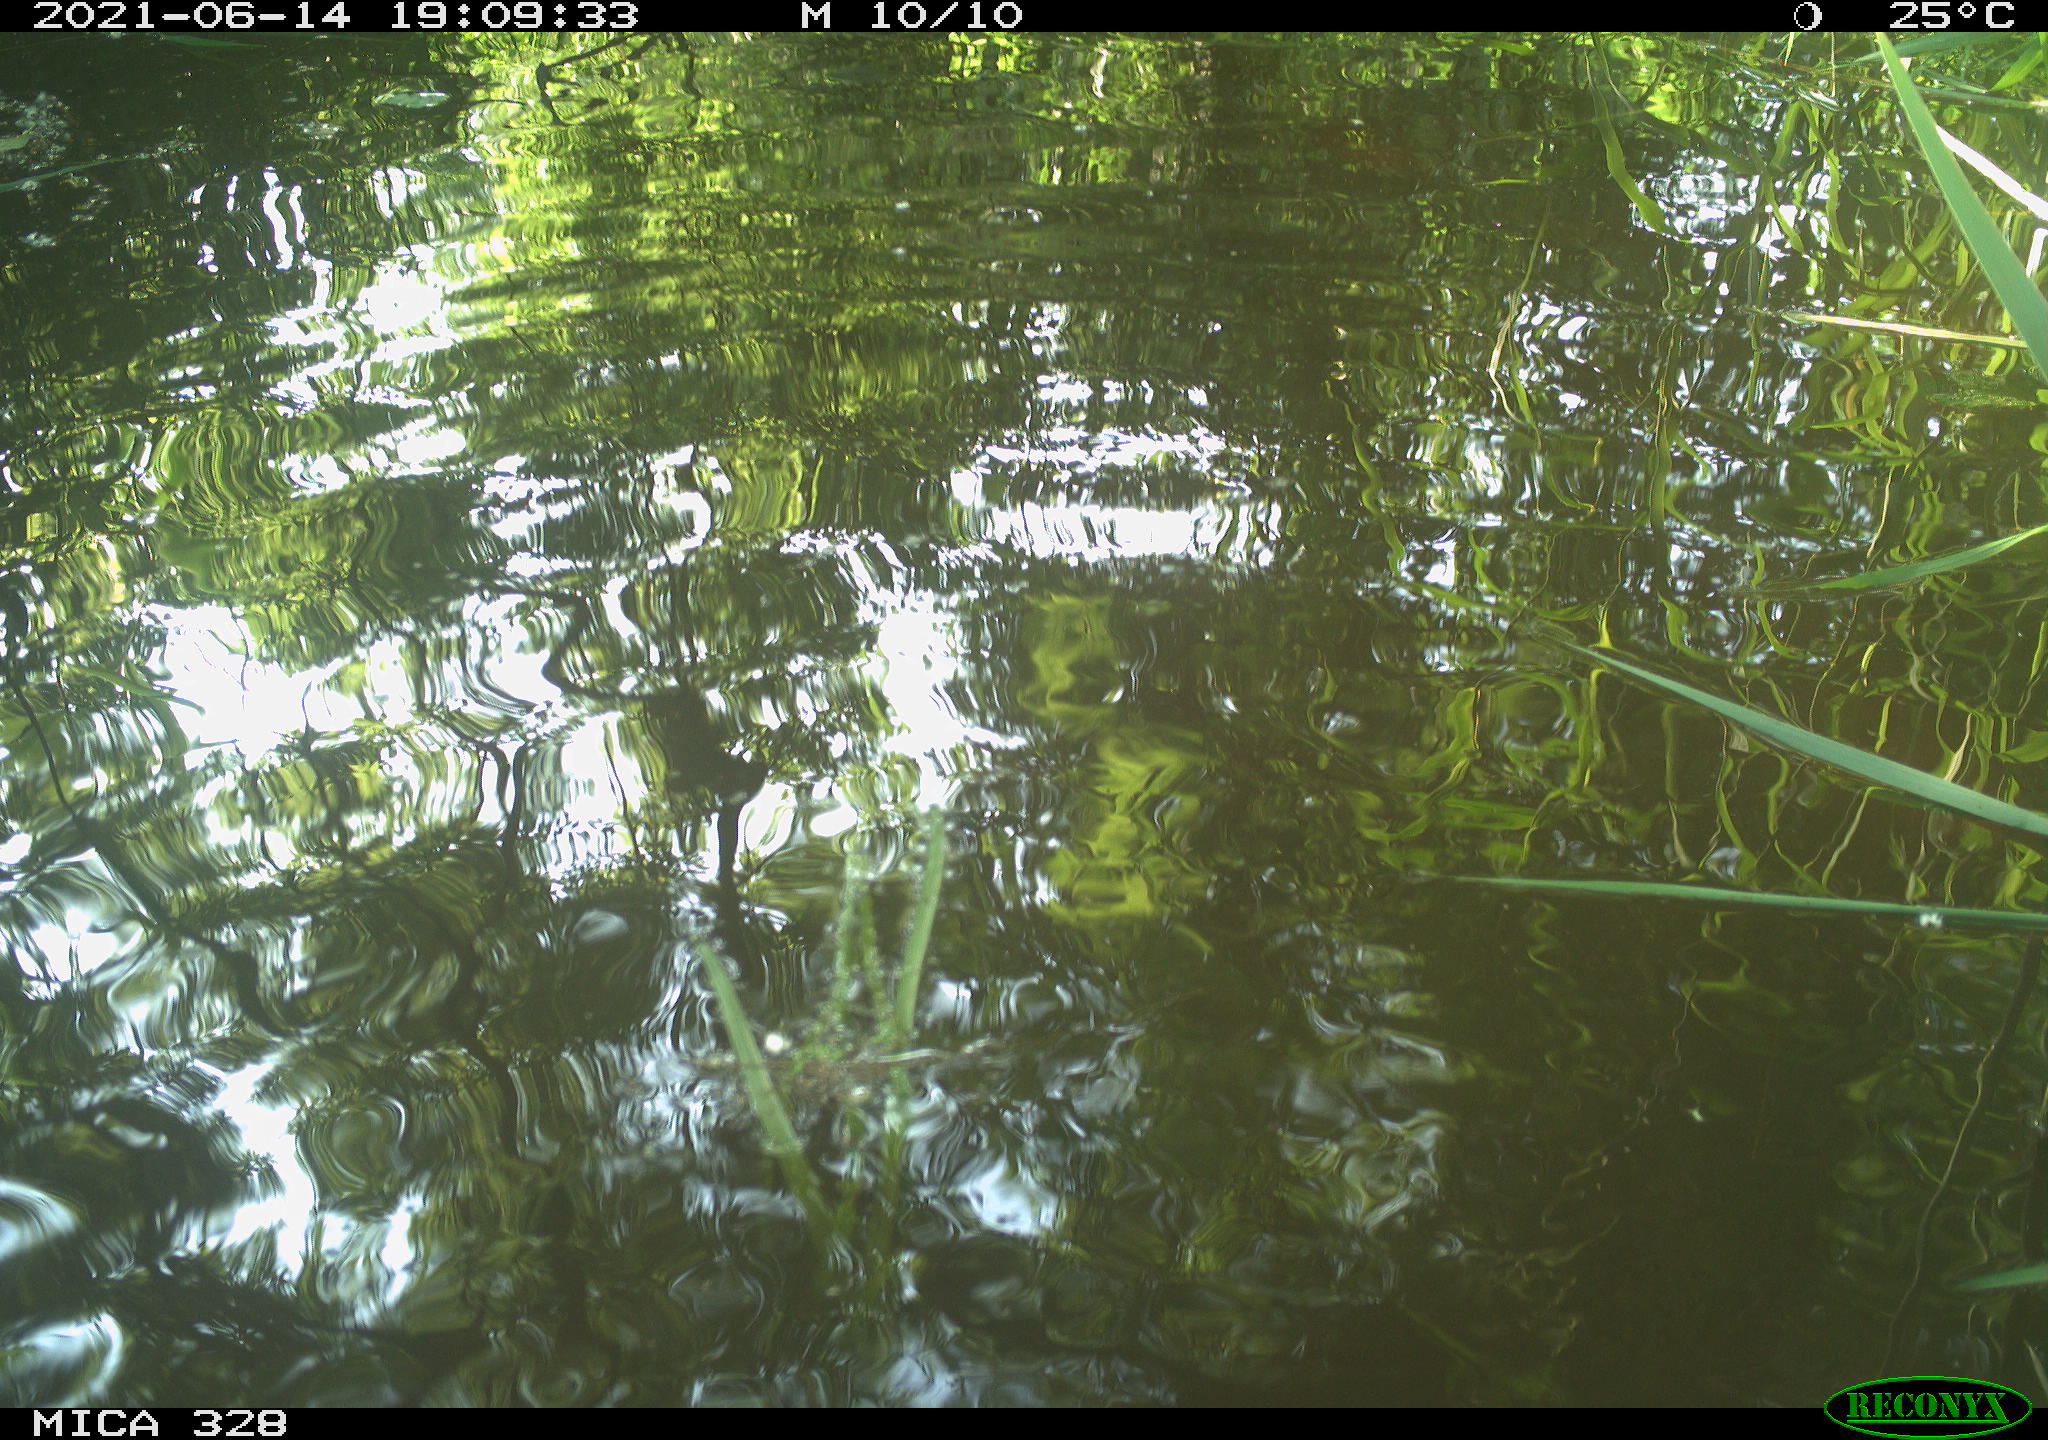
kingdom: Animalia
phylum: Chordata
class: Aves
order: Anseriformes
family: Anatidae
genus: Aix
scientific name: Aix galericulata
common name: Mandarin duck
